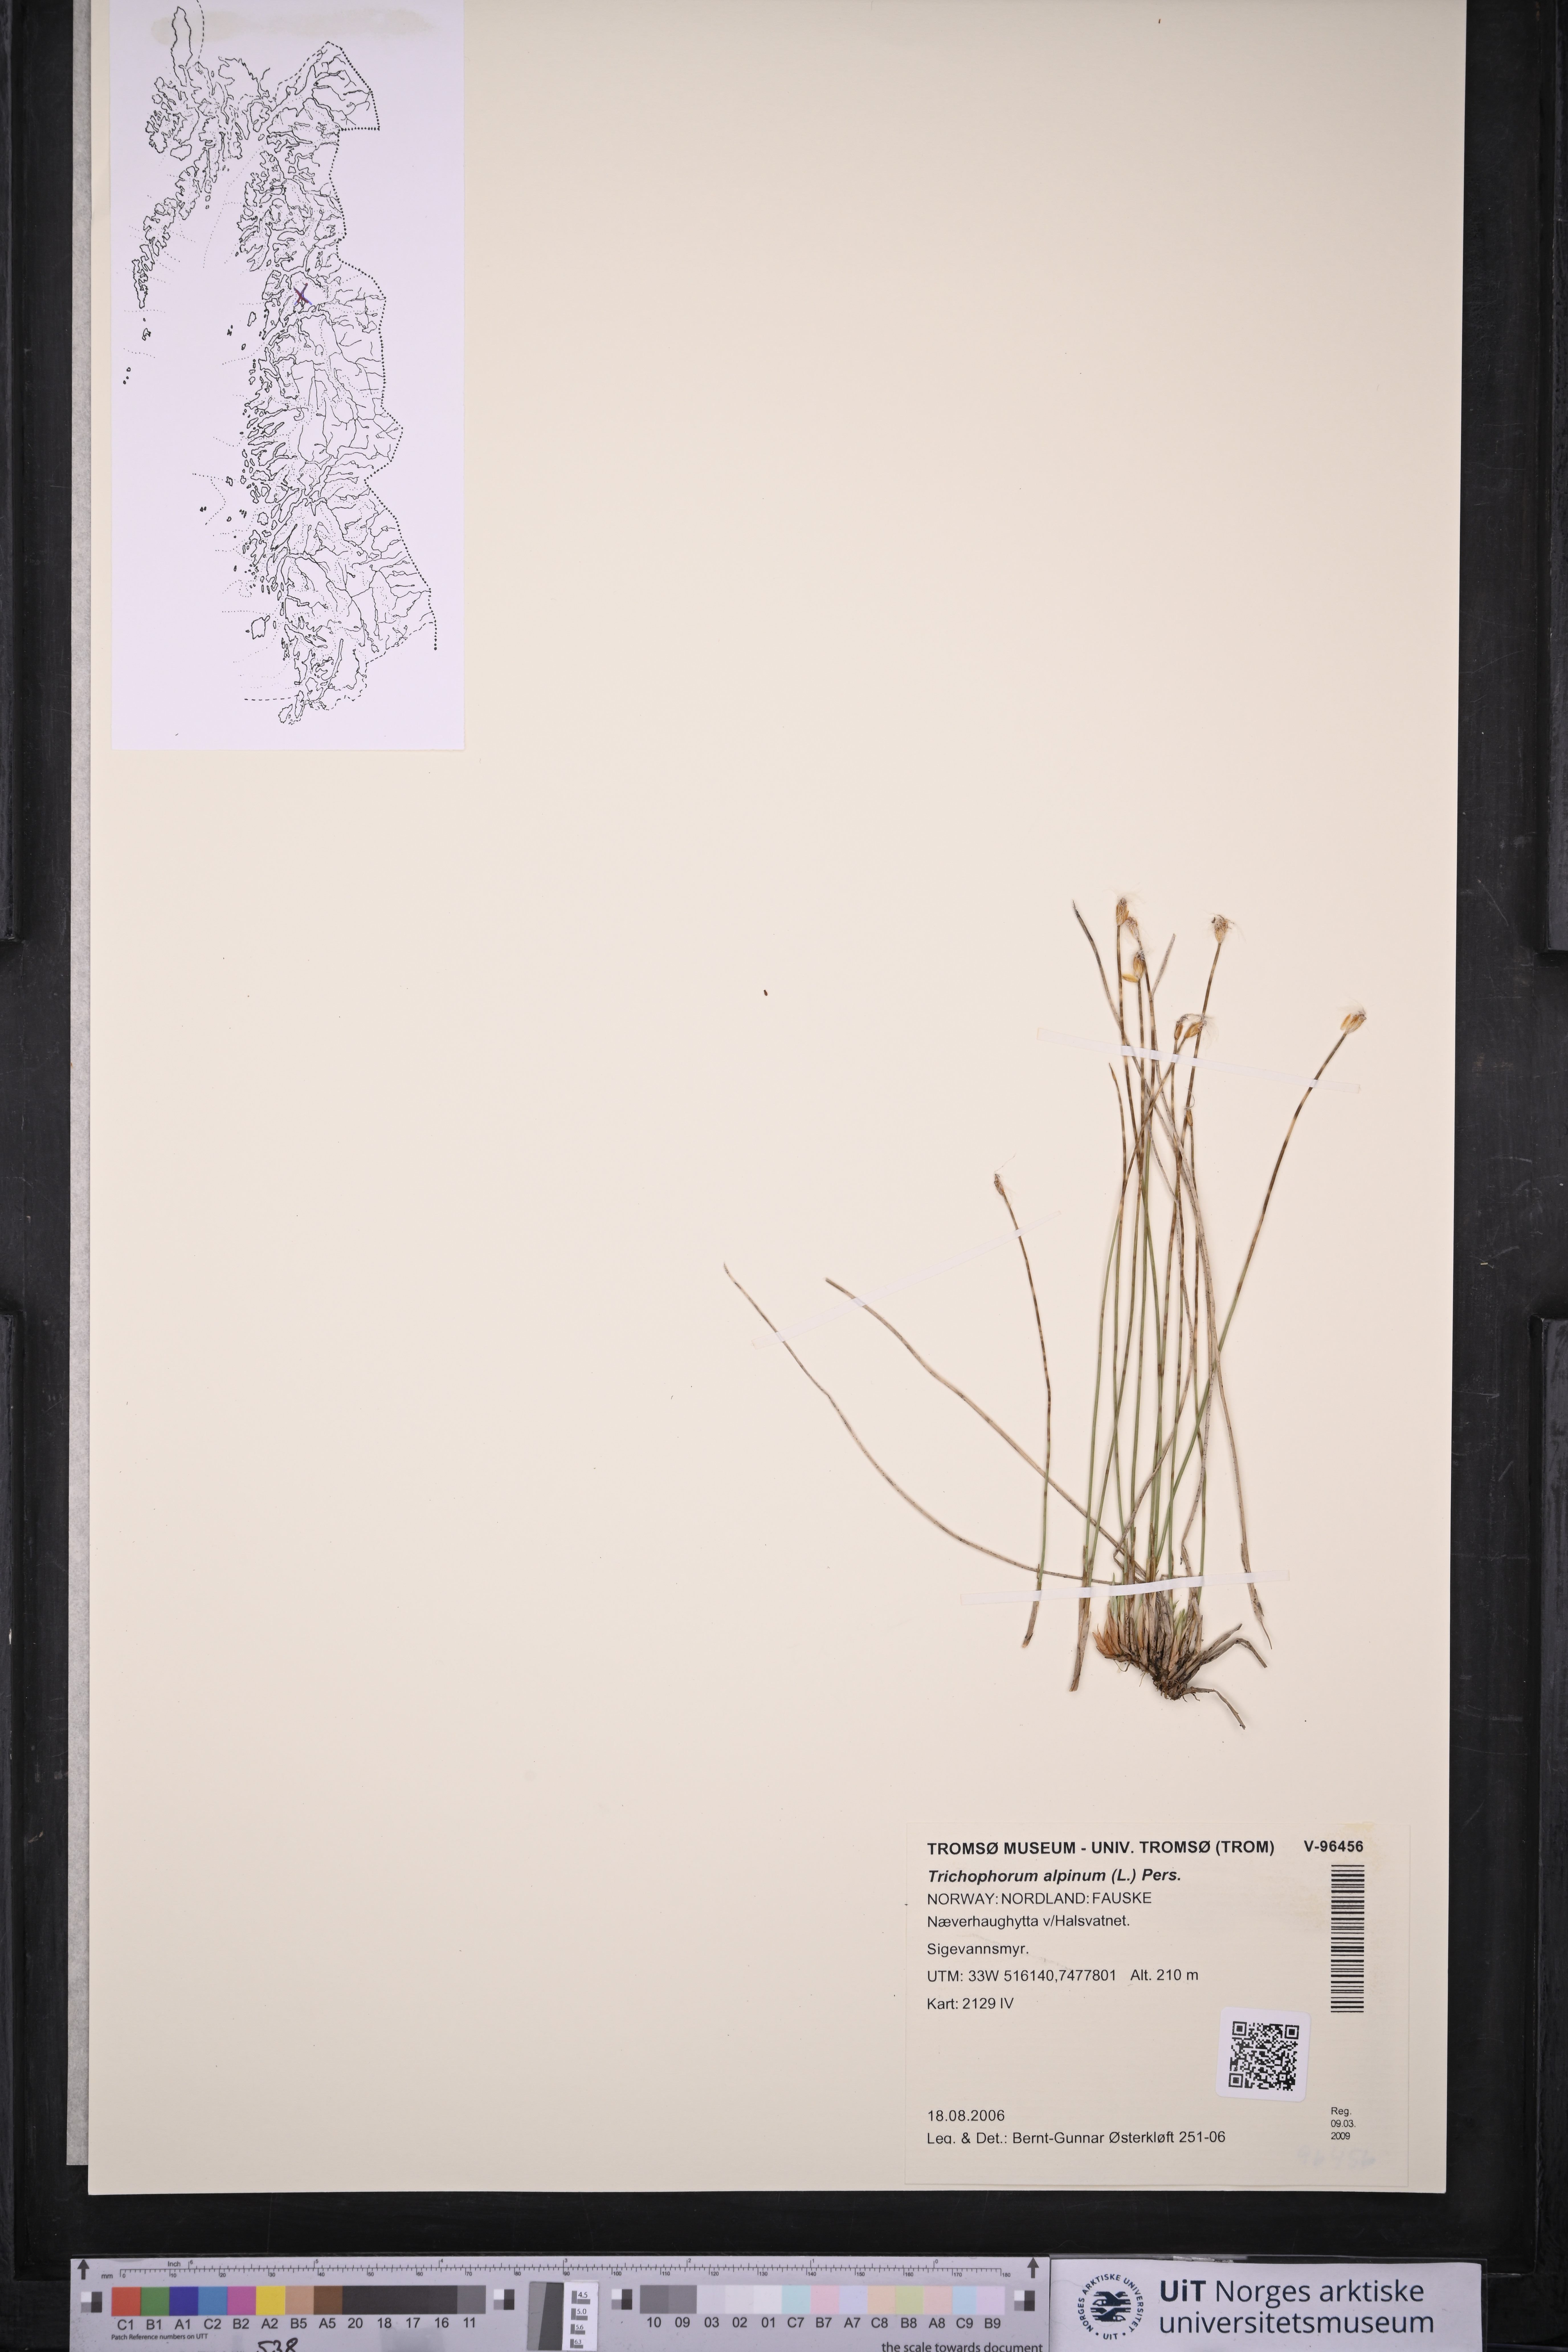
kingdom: Plantae
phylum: Tracheophyta
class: Liliopsida
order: Poales
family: Cyperaceae
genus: Trichophorum
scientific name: Trichophorum alpinum
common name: Alpine bulrush
